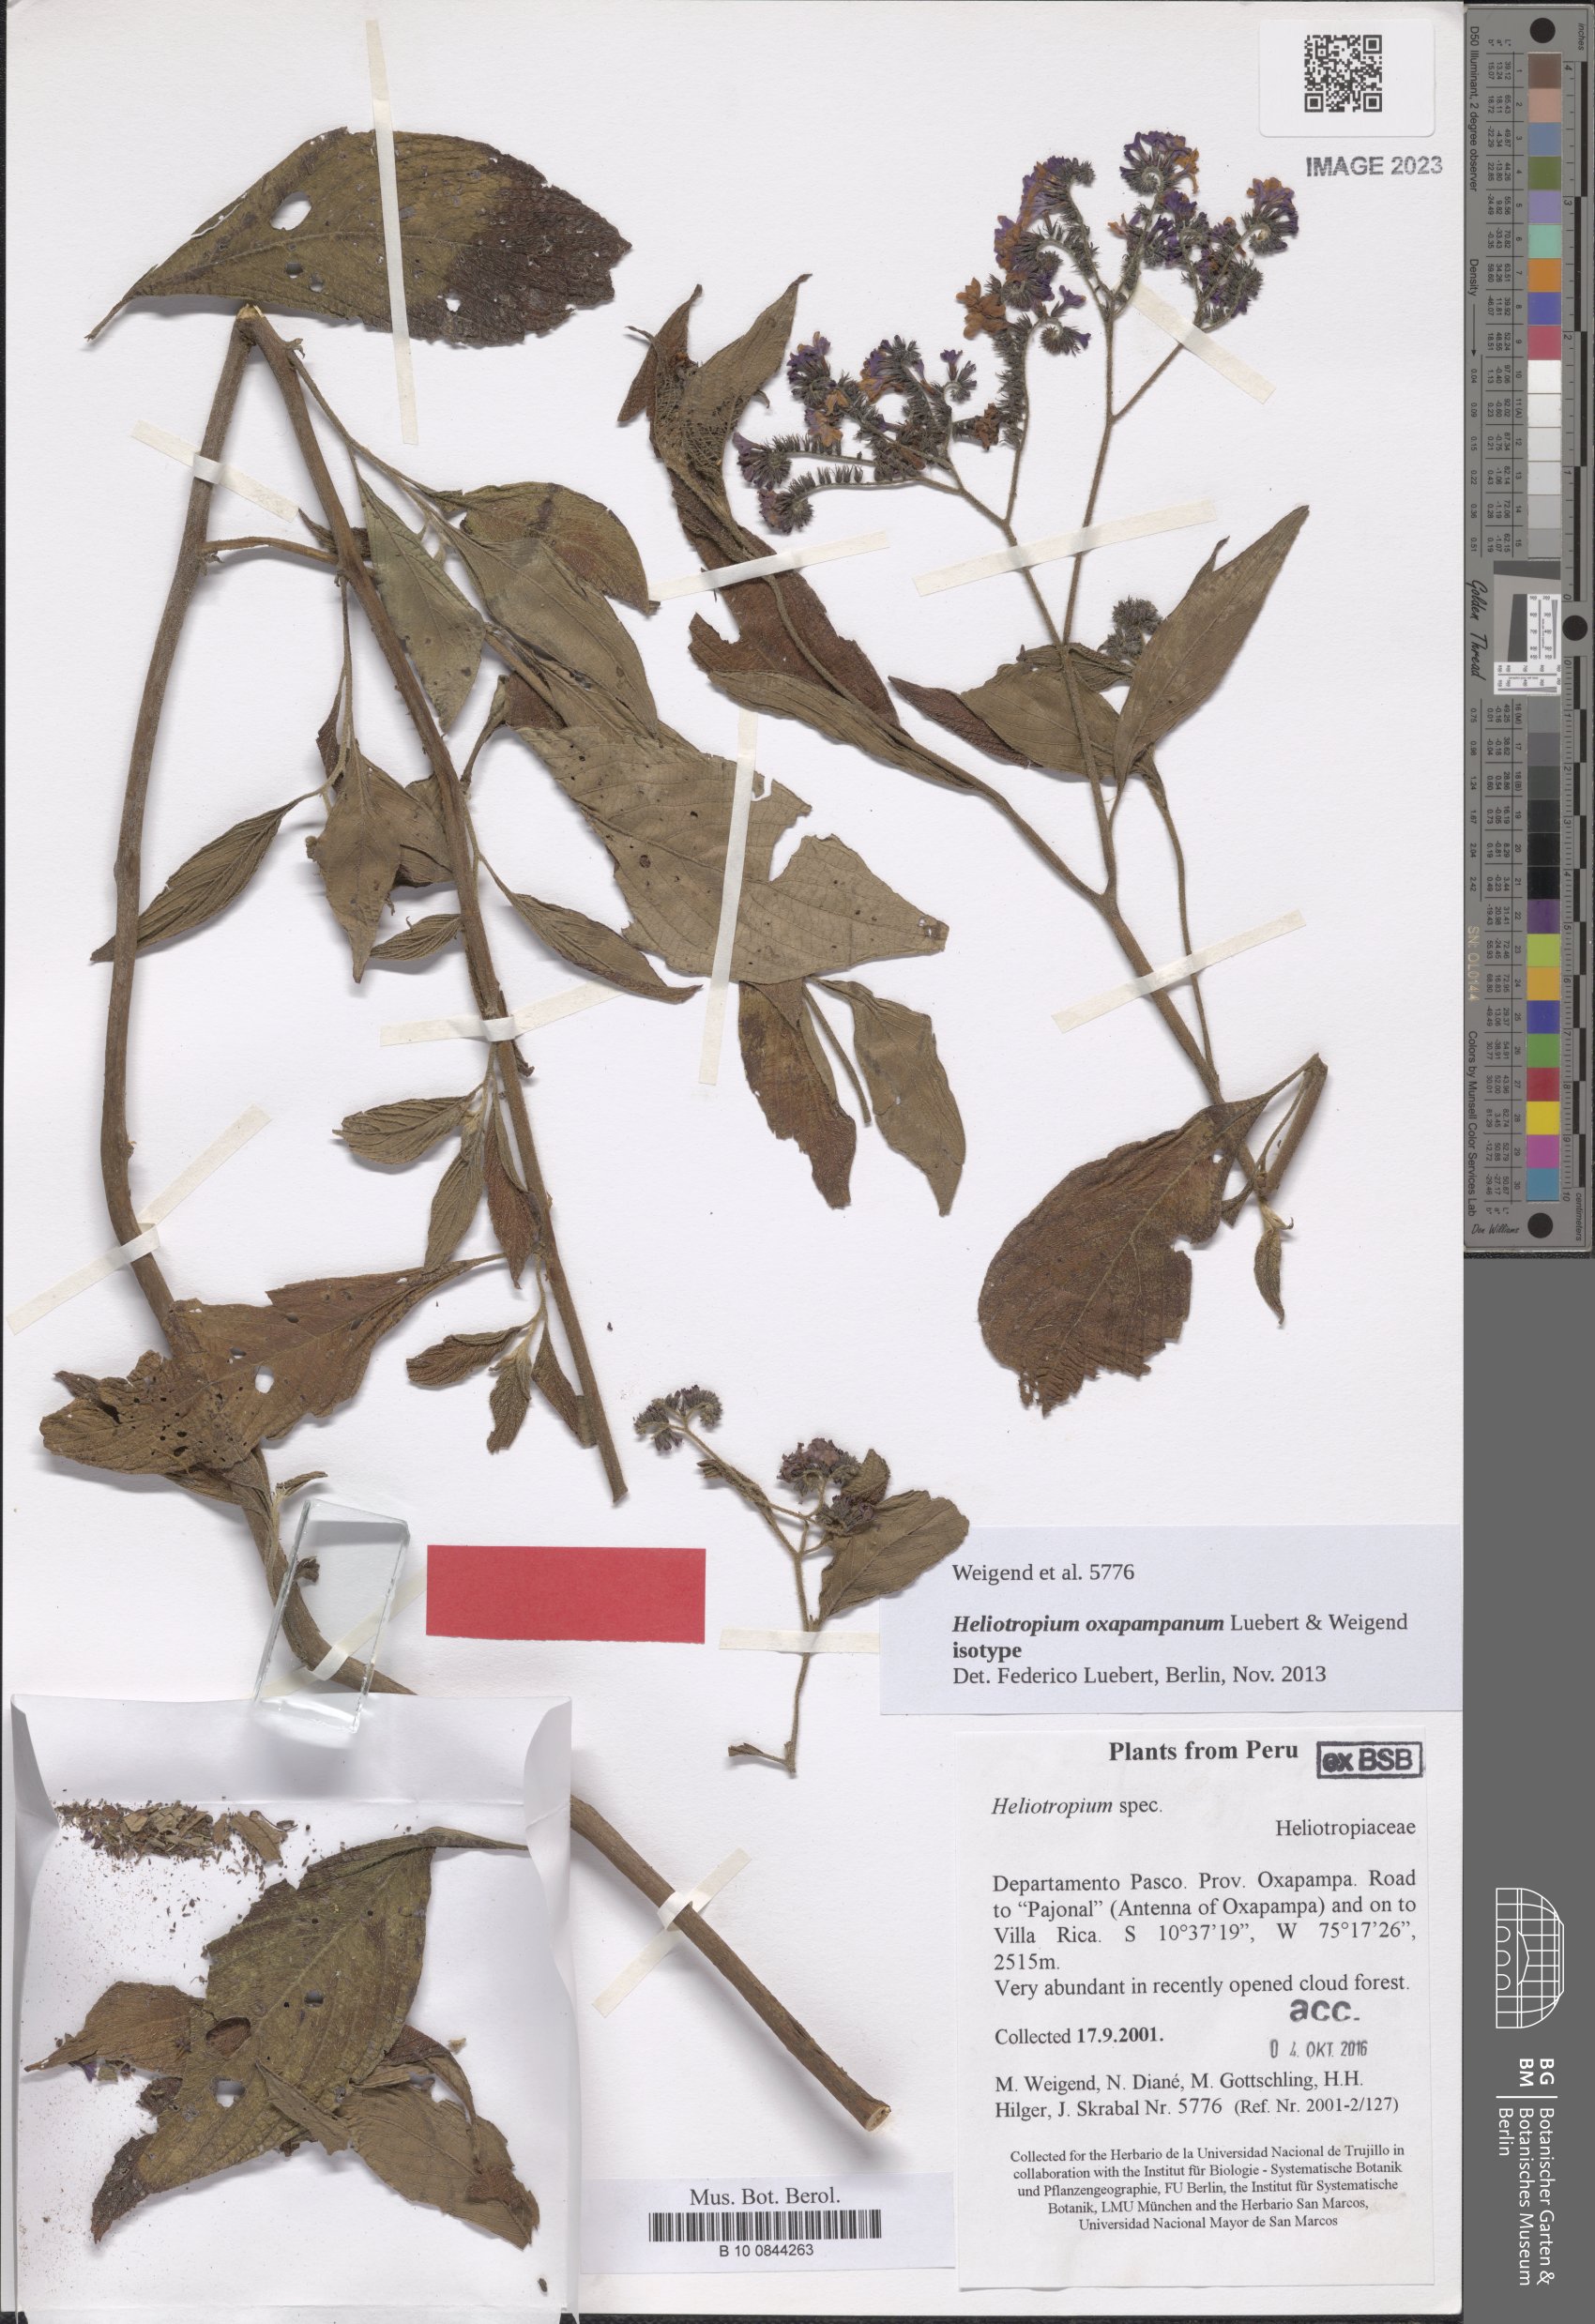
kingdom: Plantae
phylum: Tracheophyta
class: Magnoliopsida
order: Boraginales
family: Heliotropiaceae
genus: Heliotropium
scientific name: Heliotropium oxapampanum
